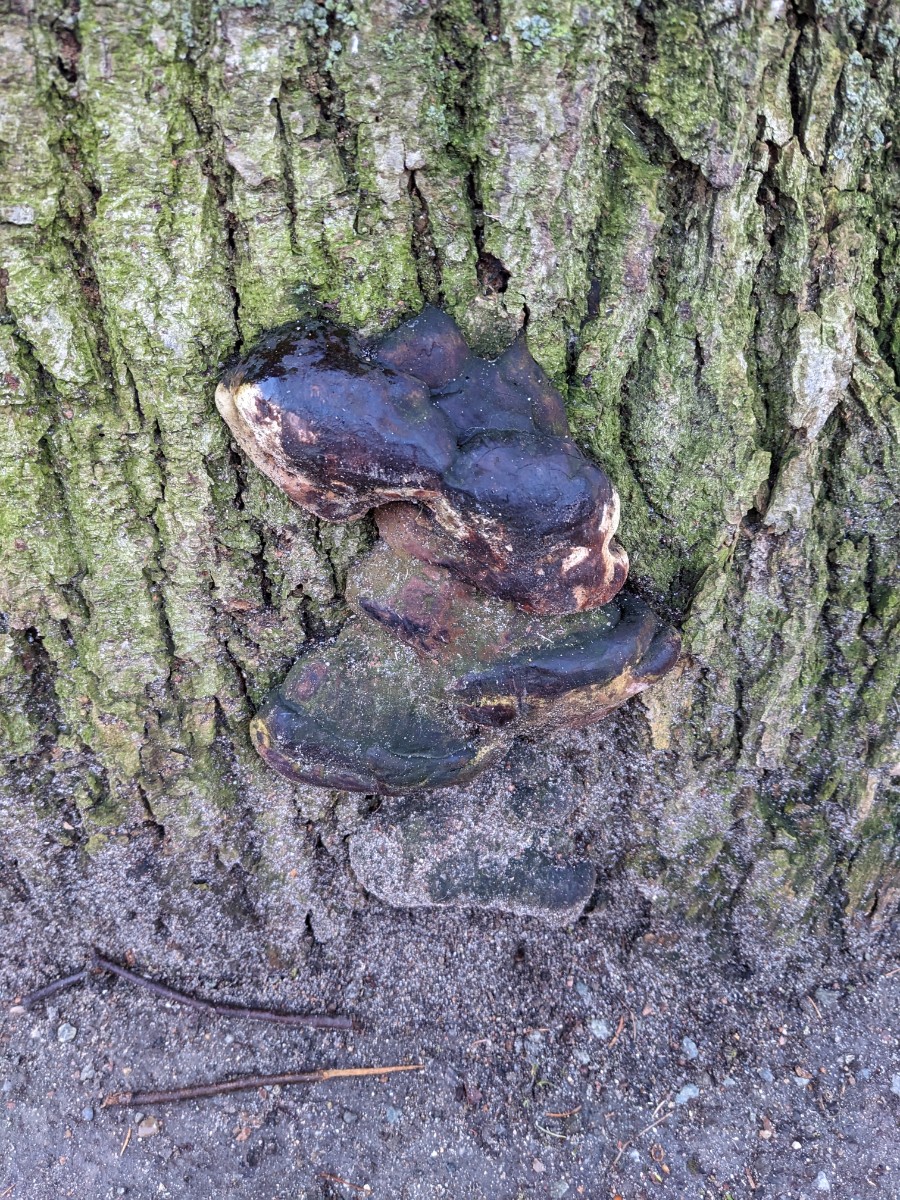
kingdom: Fungi
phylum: Basidiomycota
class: Agaricomycetes
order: Polyporales
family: Polyporaceae
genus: Ganoderma
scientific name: Ganoderma adspersum
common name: grov lakporesvamp
